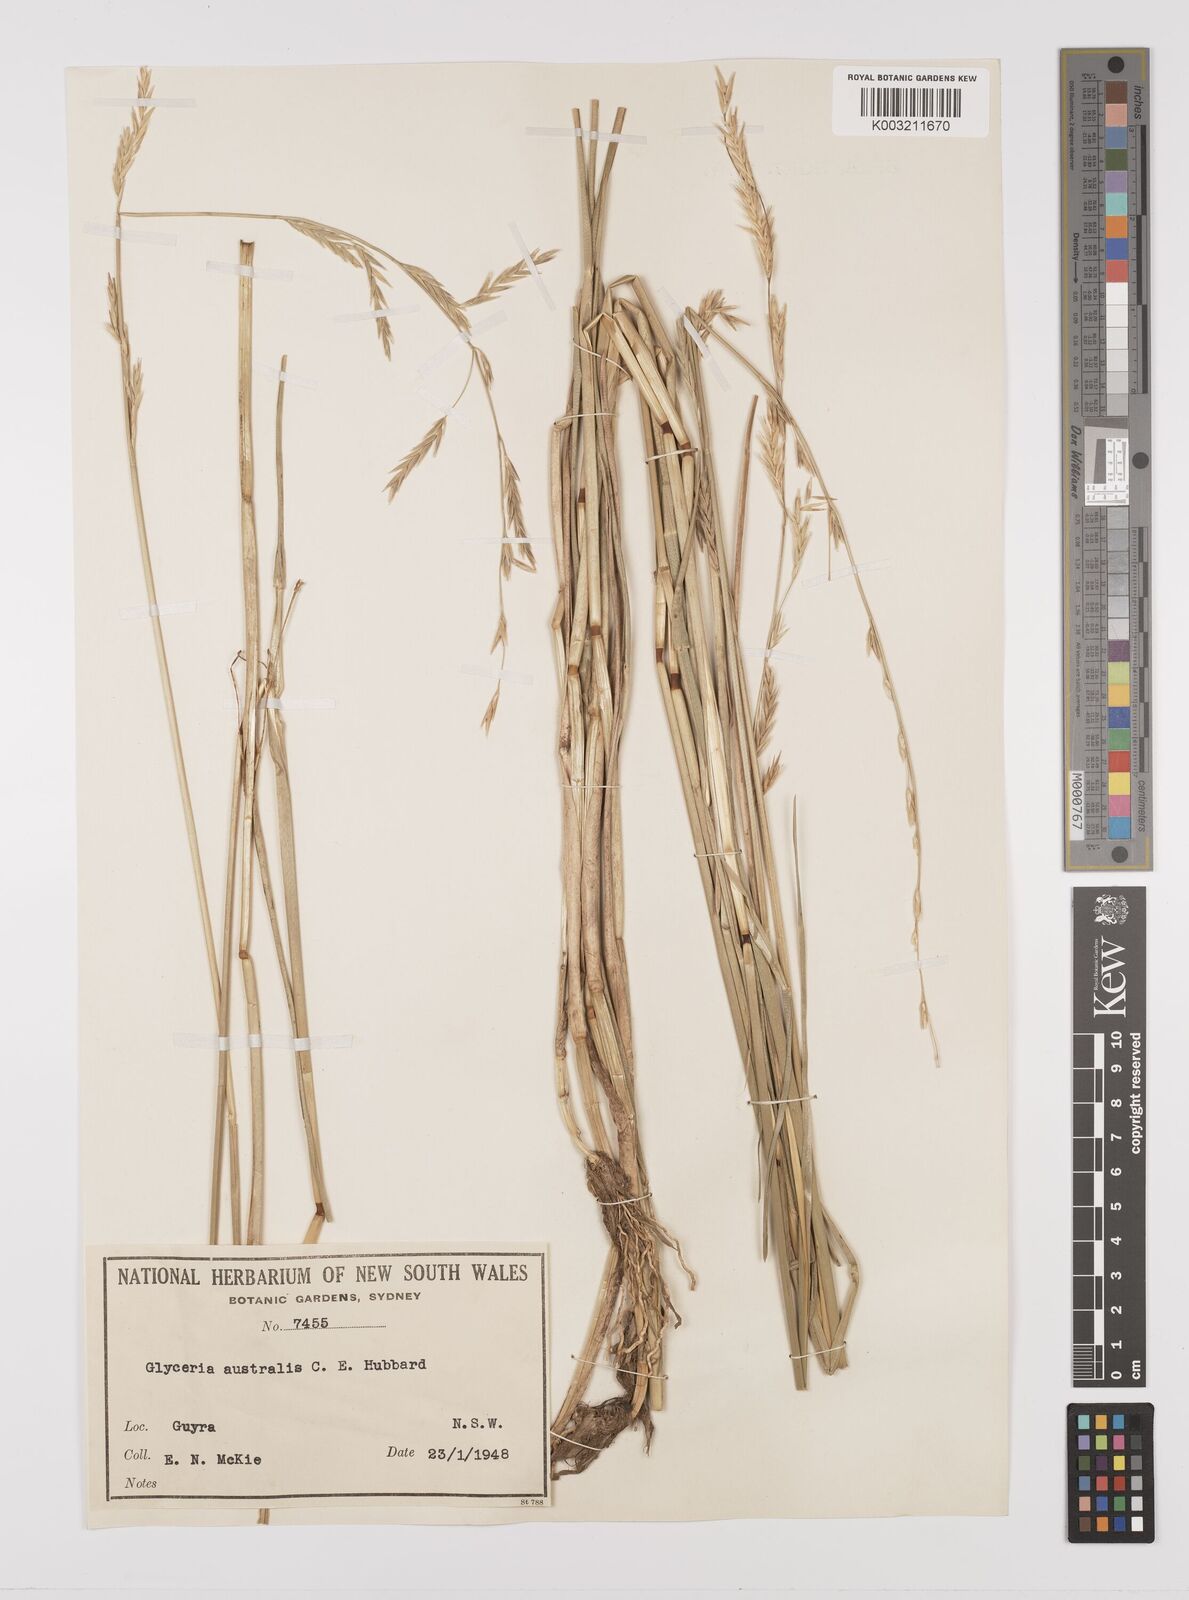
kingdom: Plantae
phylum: Tracheophyta
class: Liliopsida
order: Poales
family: Poaceae
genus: Glyceria
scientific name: Glyceria australis
